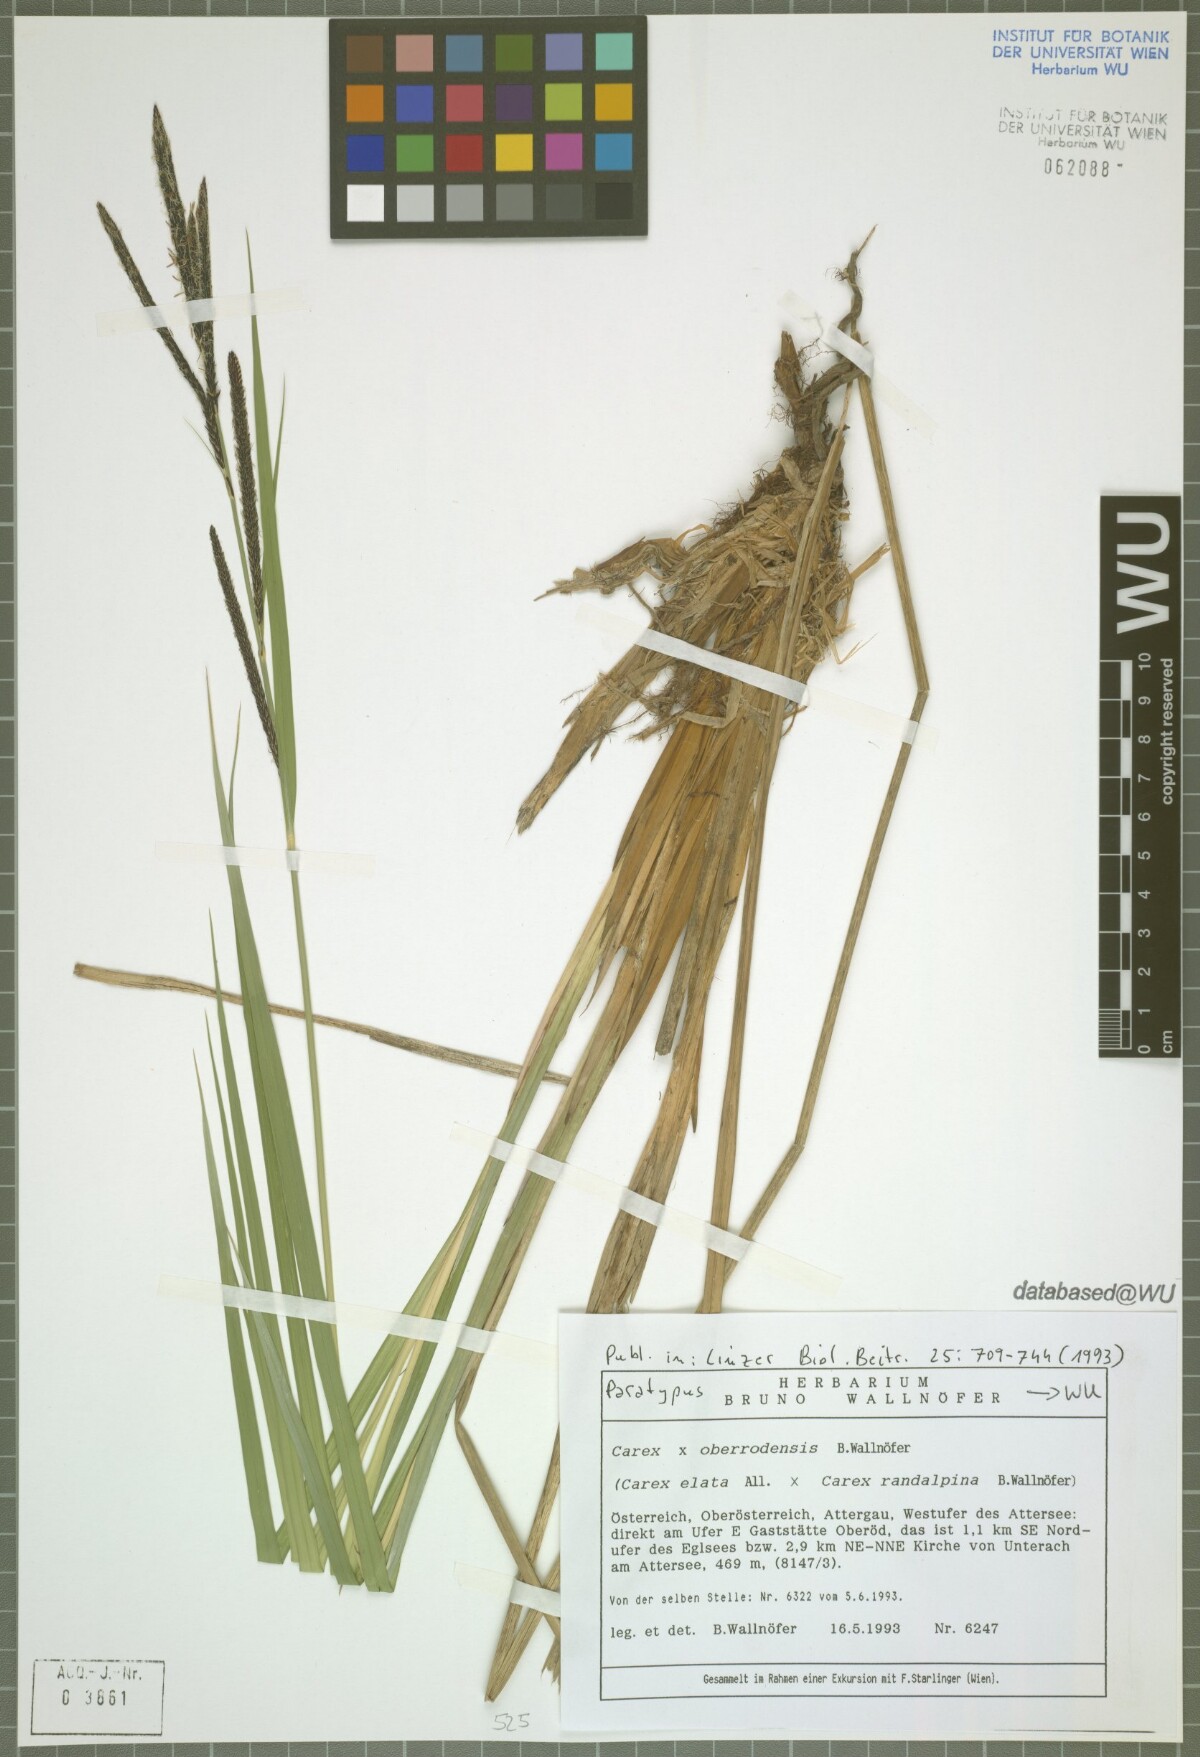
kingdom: Plantae
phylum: Tracheophyta
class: Liliopsida
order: Poales
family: Cyperaceae
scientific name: Cyperaceae
